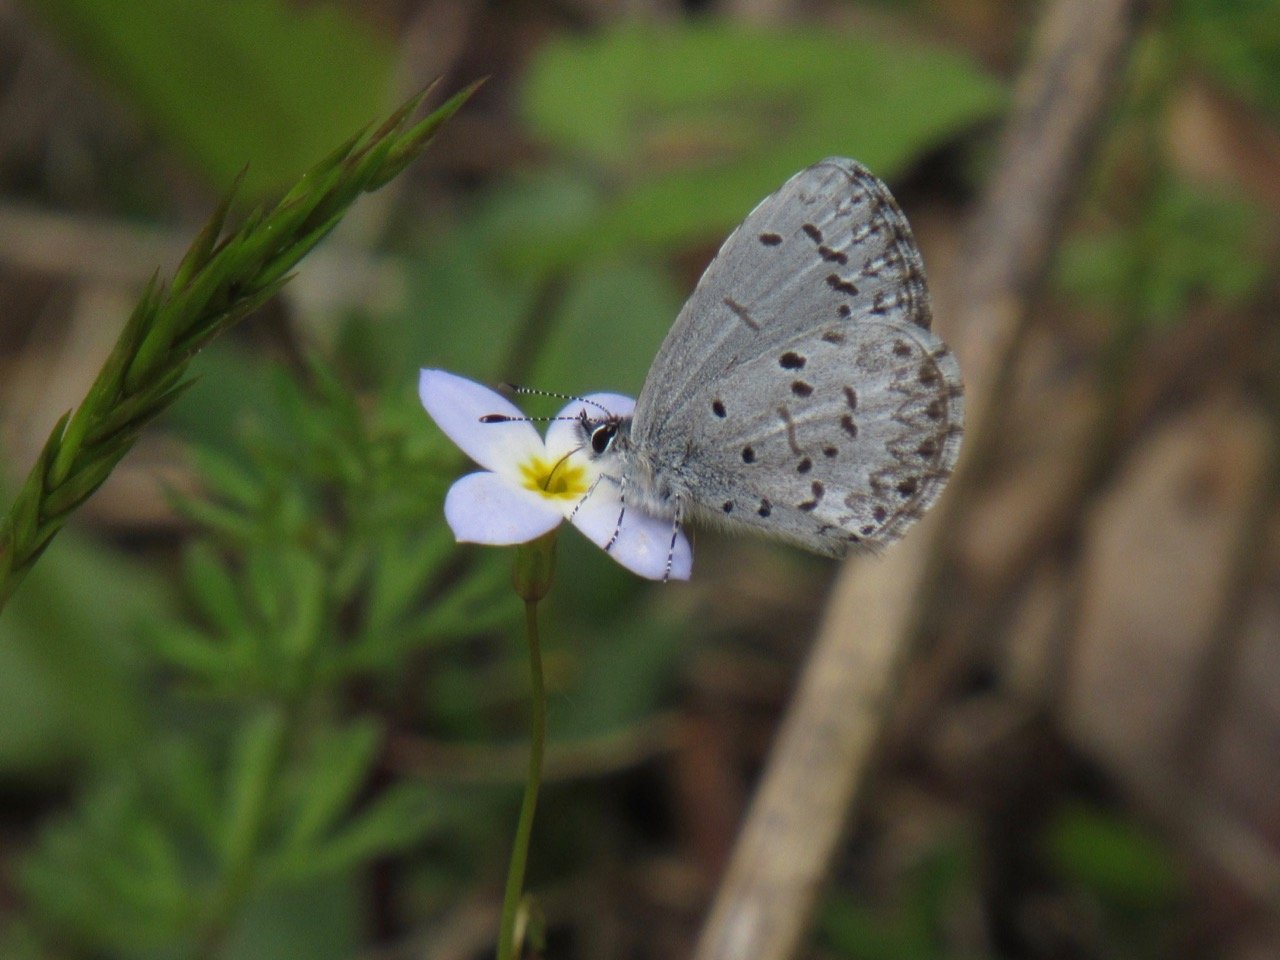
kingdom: Animalia
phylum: Arthropoda
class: Insecta
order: Lepidoptera
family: Lycaenidae
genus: Celastrina
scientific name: Celastrina lucia
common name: Northern Spring Azure
